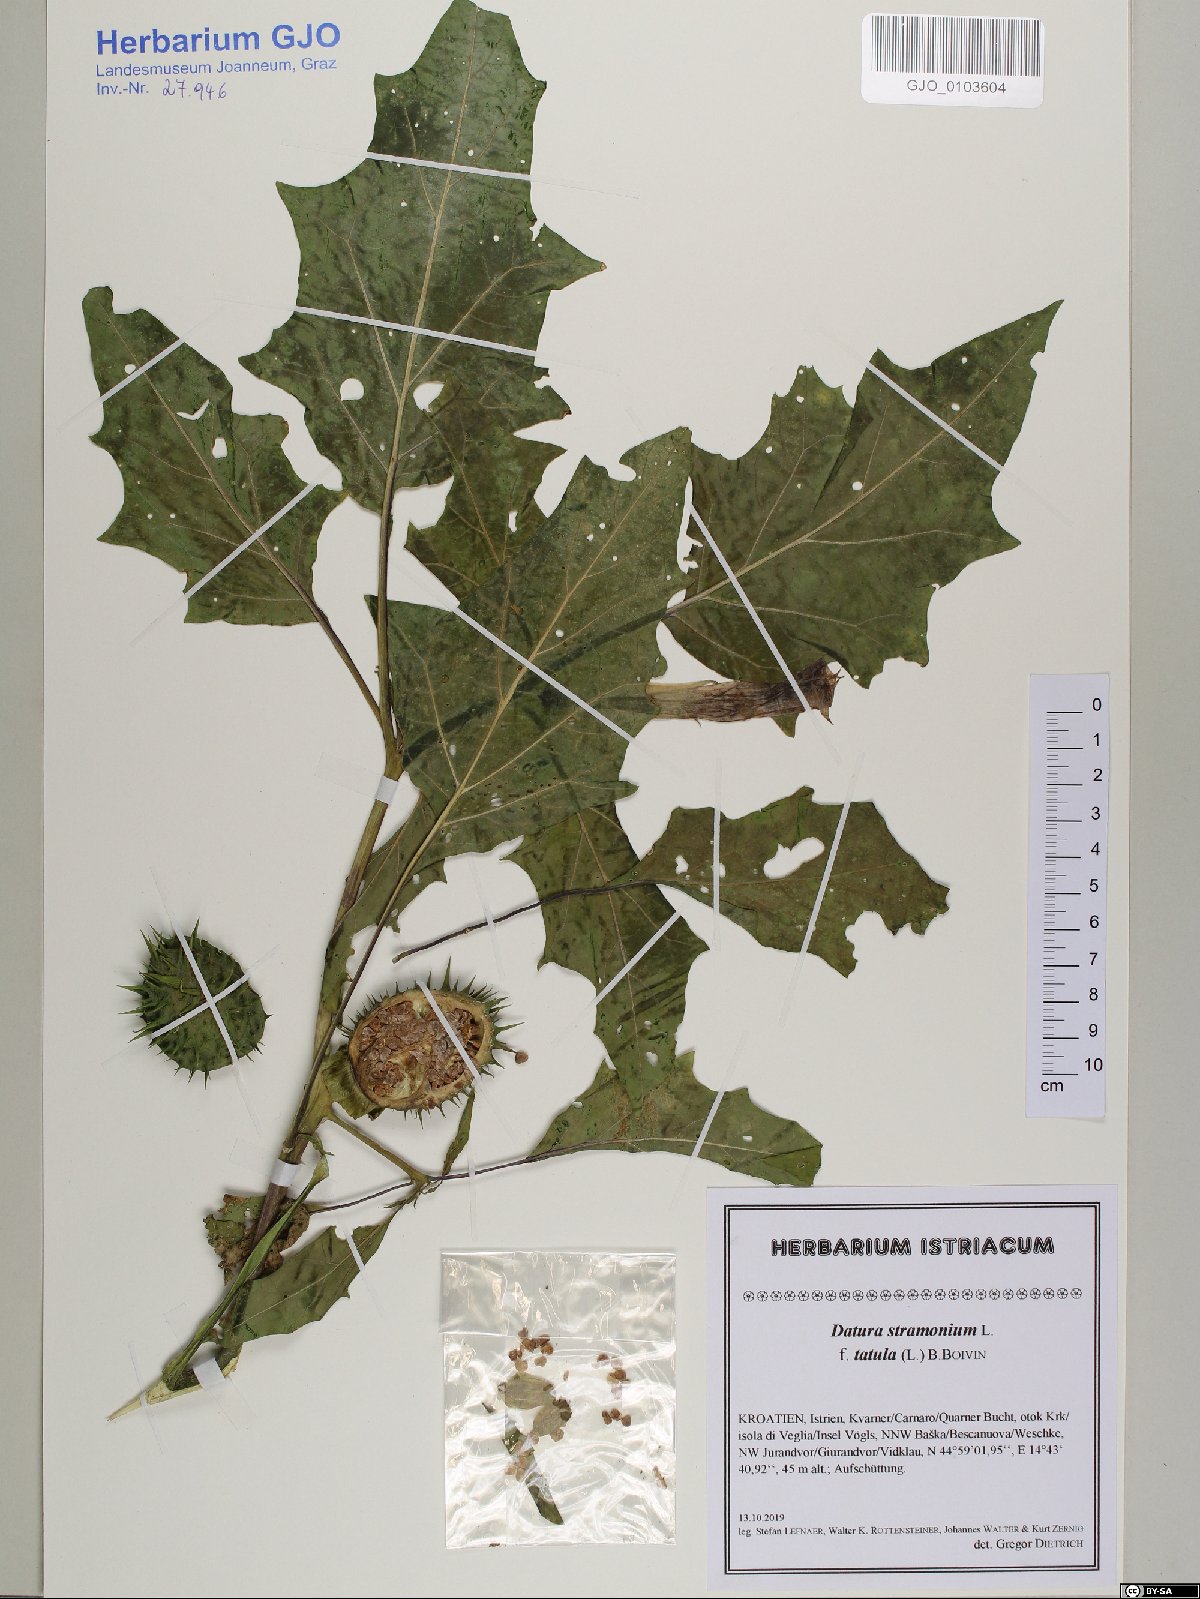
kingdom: Plantae
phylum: Tracheophyta
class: Magnoliopsida
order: Solanales
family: Solanaceae
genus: Datura
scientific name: Datura stramonium
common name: Thorn-apple
